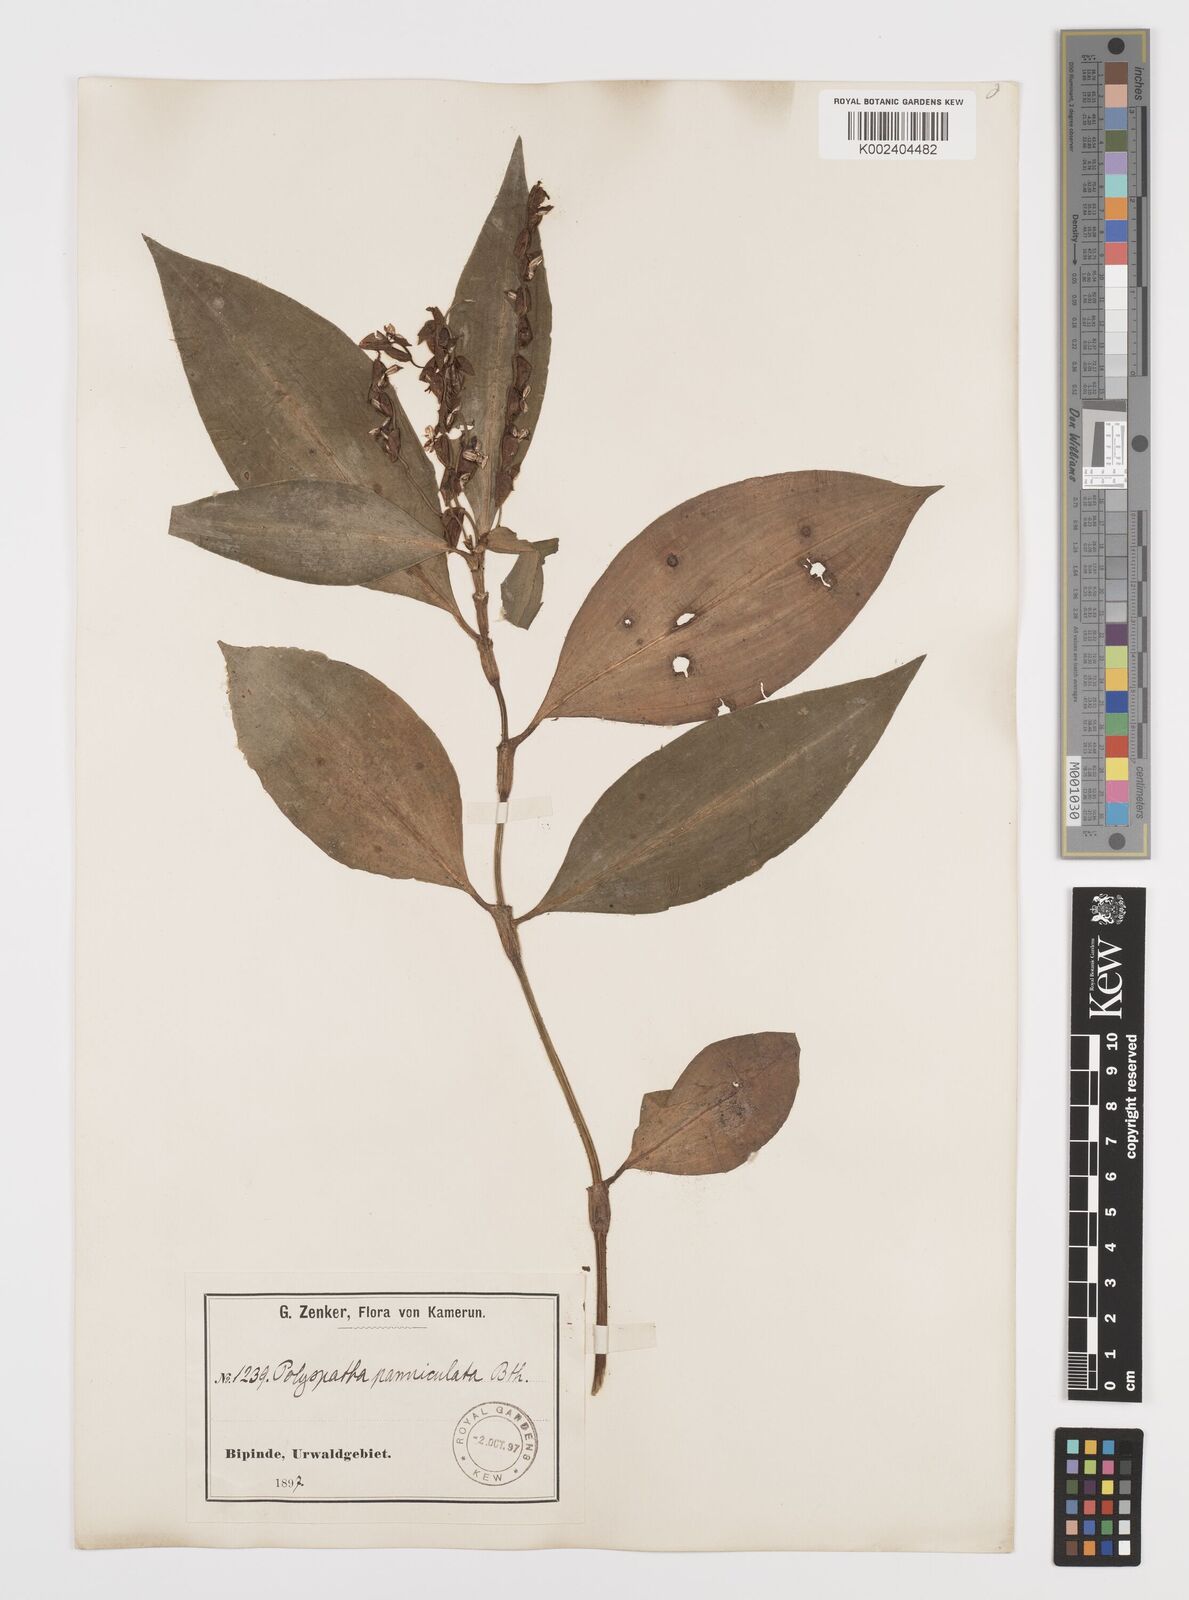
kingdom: Plantae
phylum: Tracheophyta
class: Liliopsida
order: Commelinales
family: Commelinaceae
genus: Polyspatha
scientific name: Polyspatha paniculata
